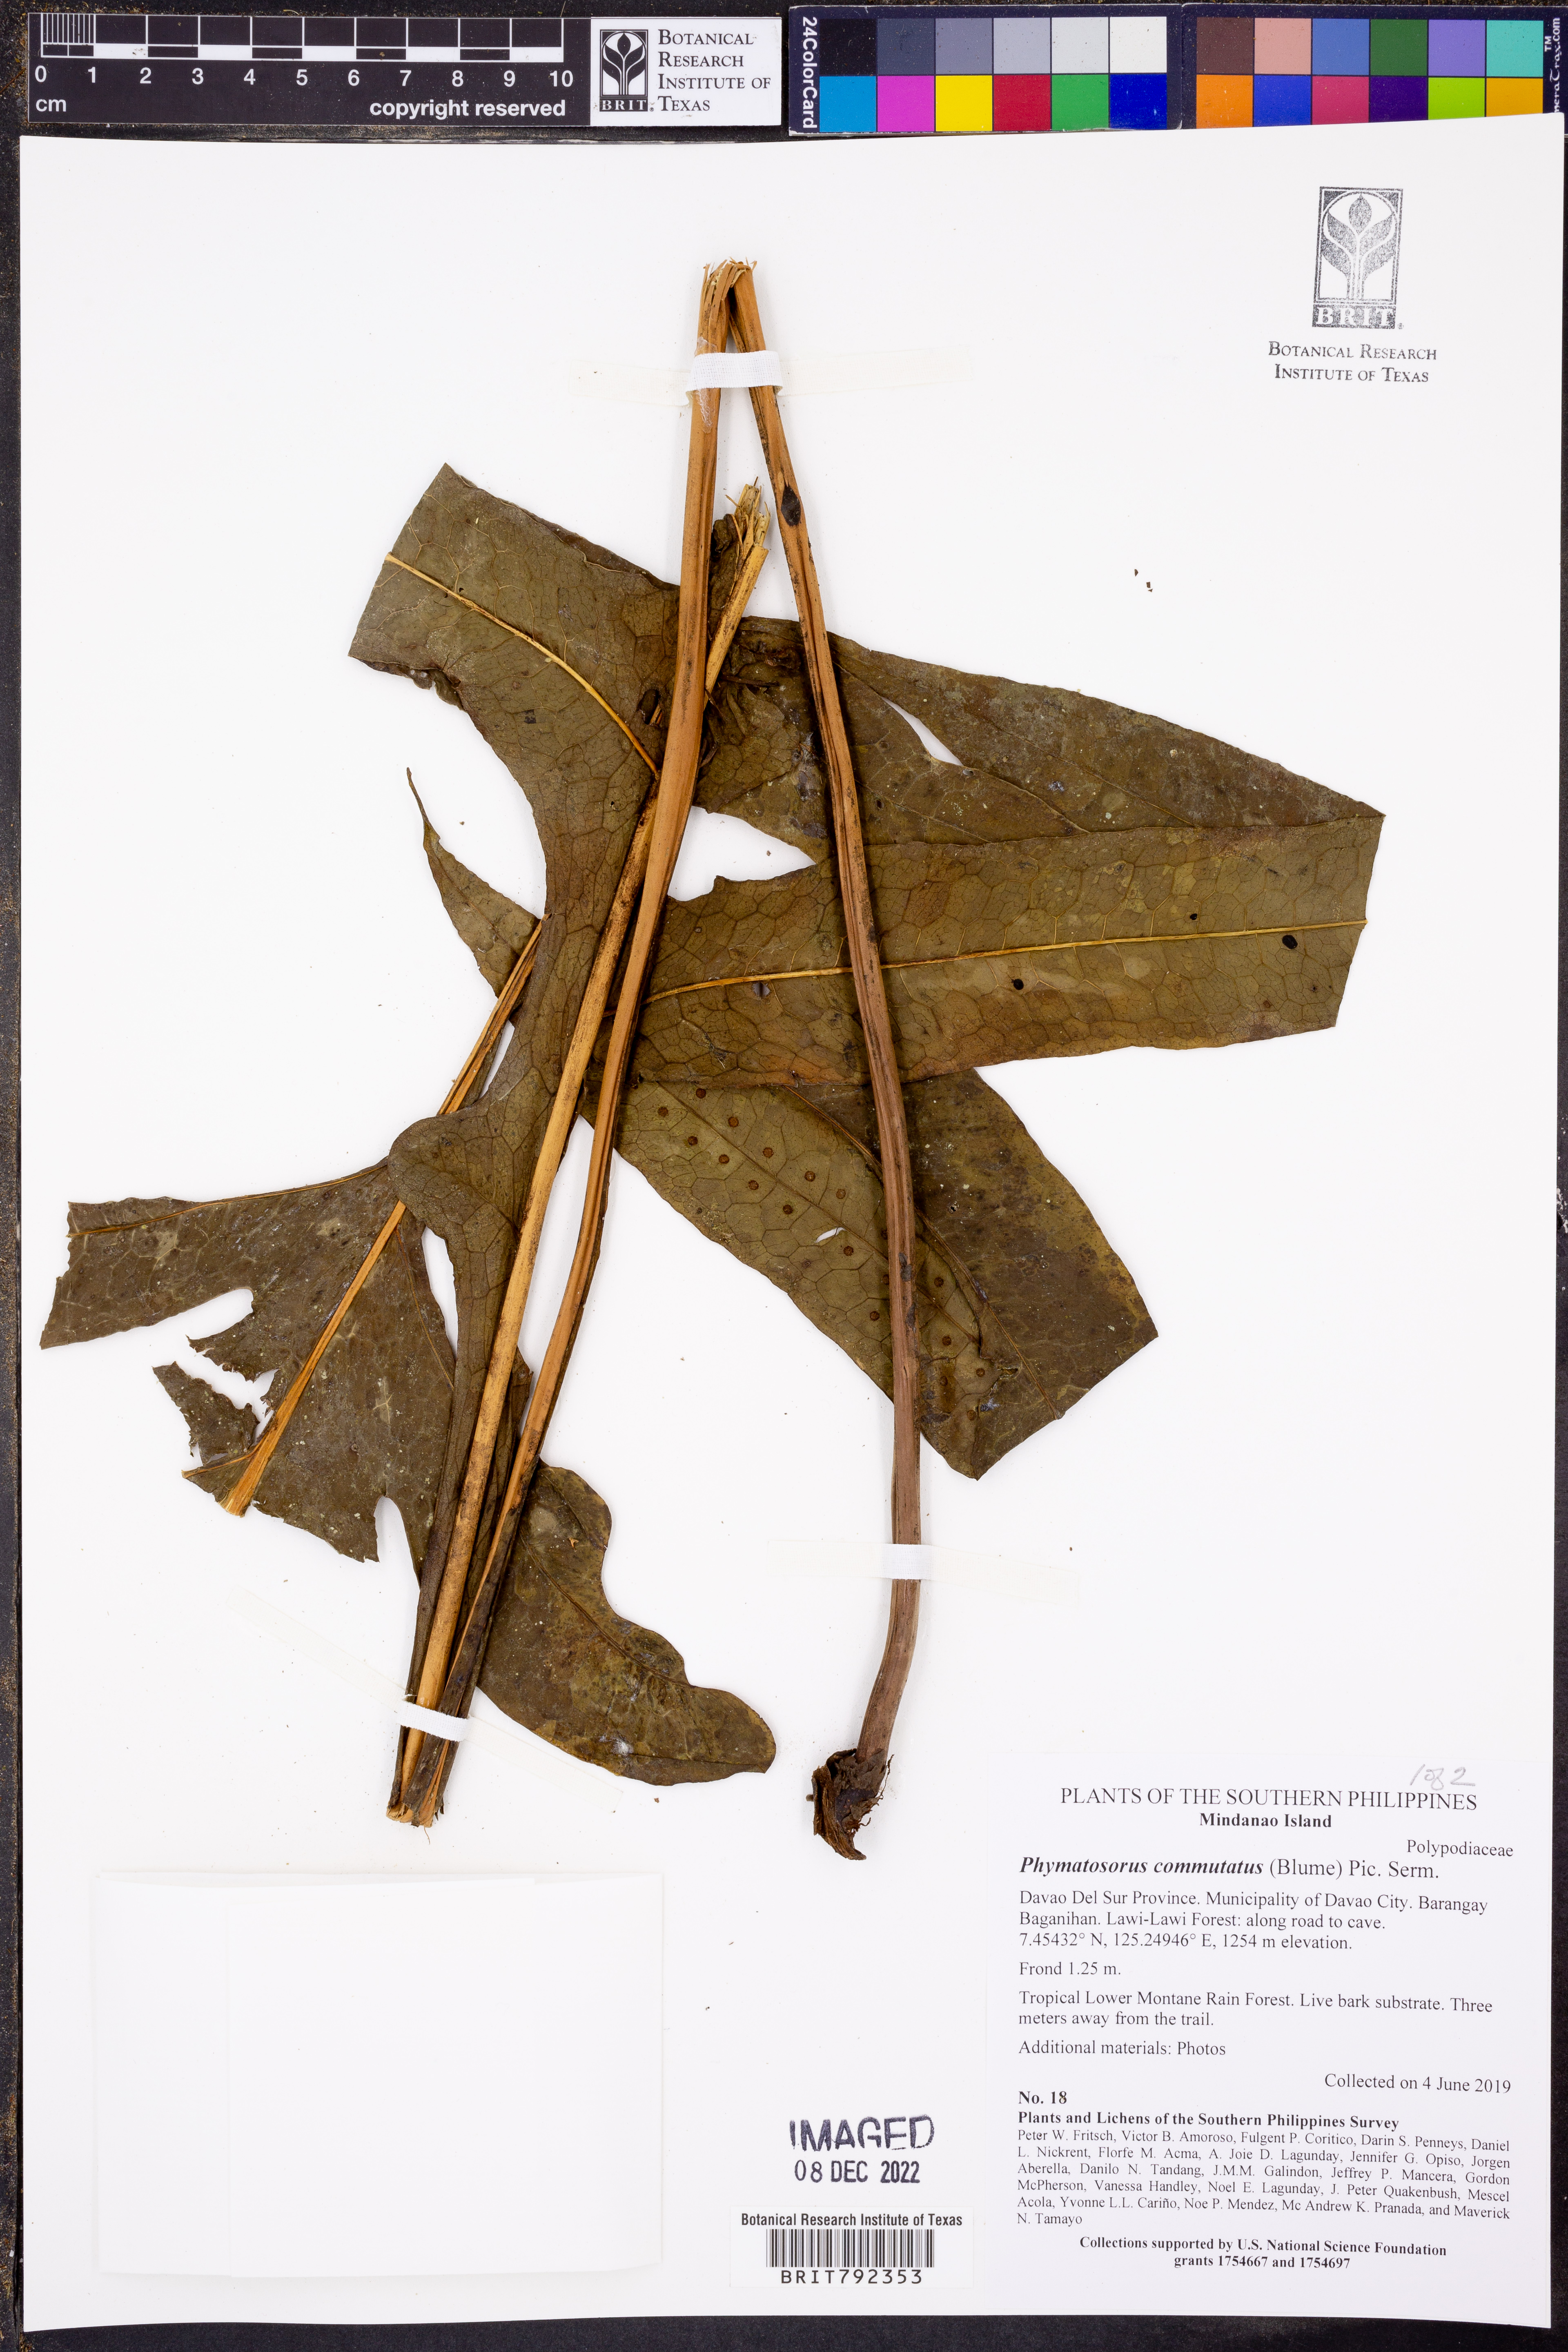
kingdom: Plantae
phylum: Tracheophyta
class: Polypodiopsida
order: Polypodiales
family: Polypodiaceae
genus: Microsorum
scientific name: Microsorum commutatum
